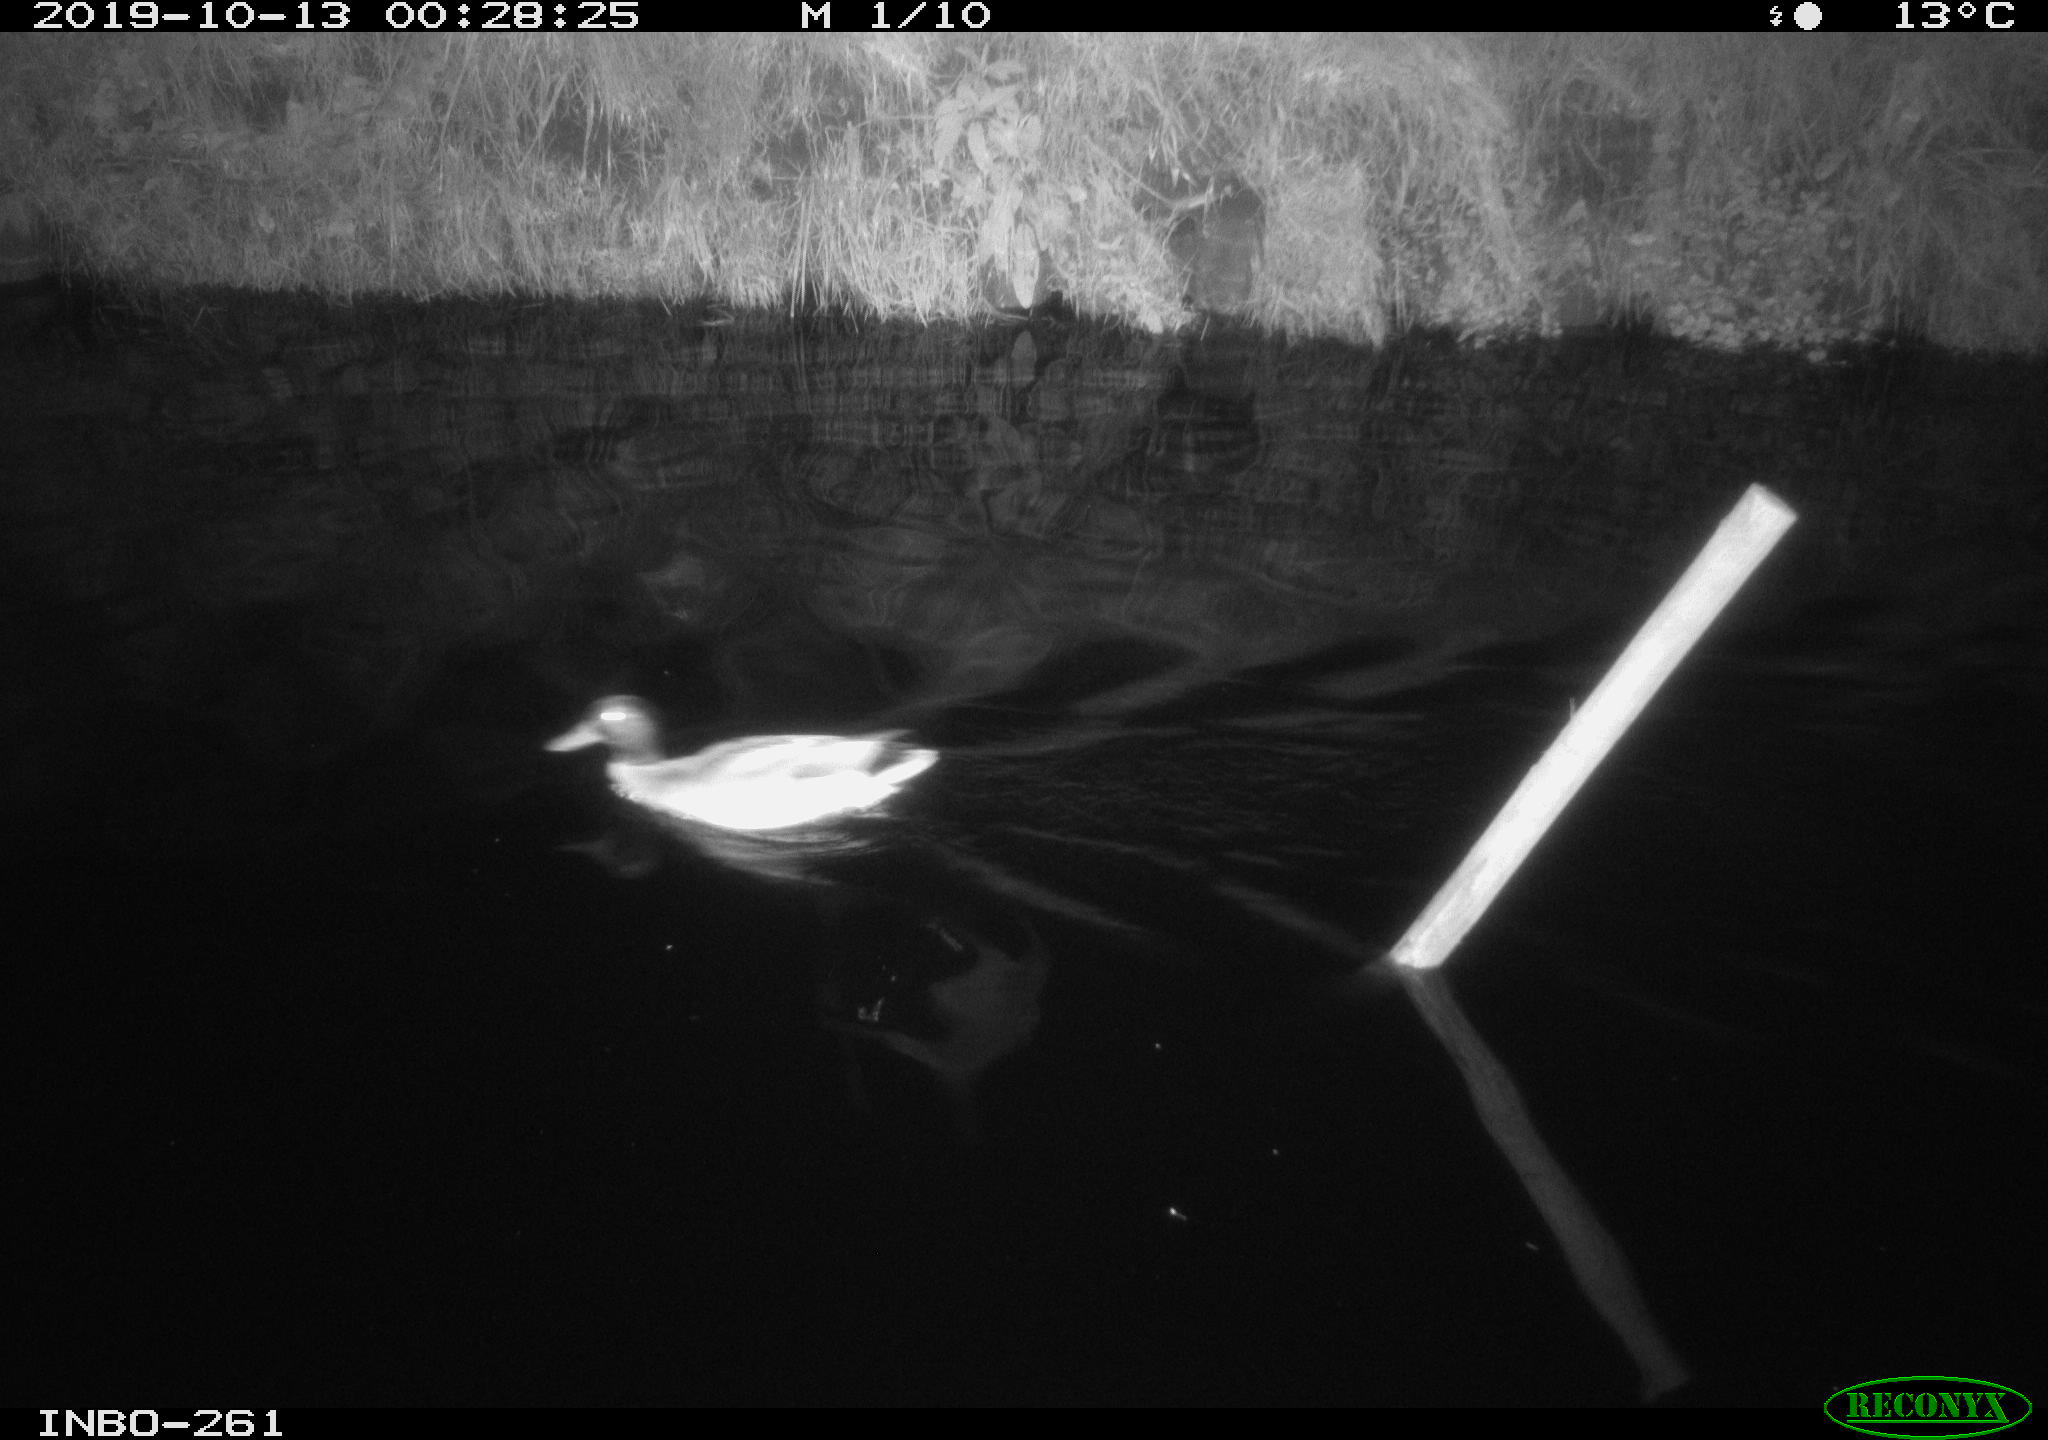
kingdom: Animalia
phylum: Chordata
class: Aves
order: Anseriformes
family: Anatidae
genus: Anas
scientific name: Anas platyrhynchos
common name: Mallard
